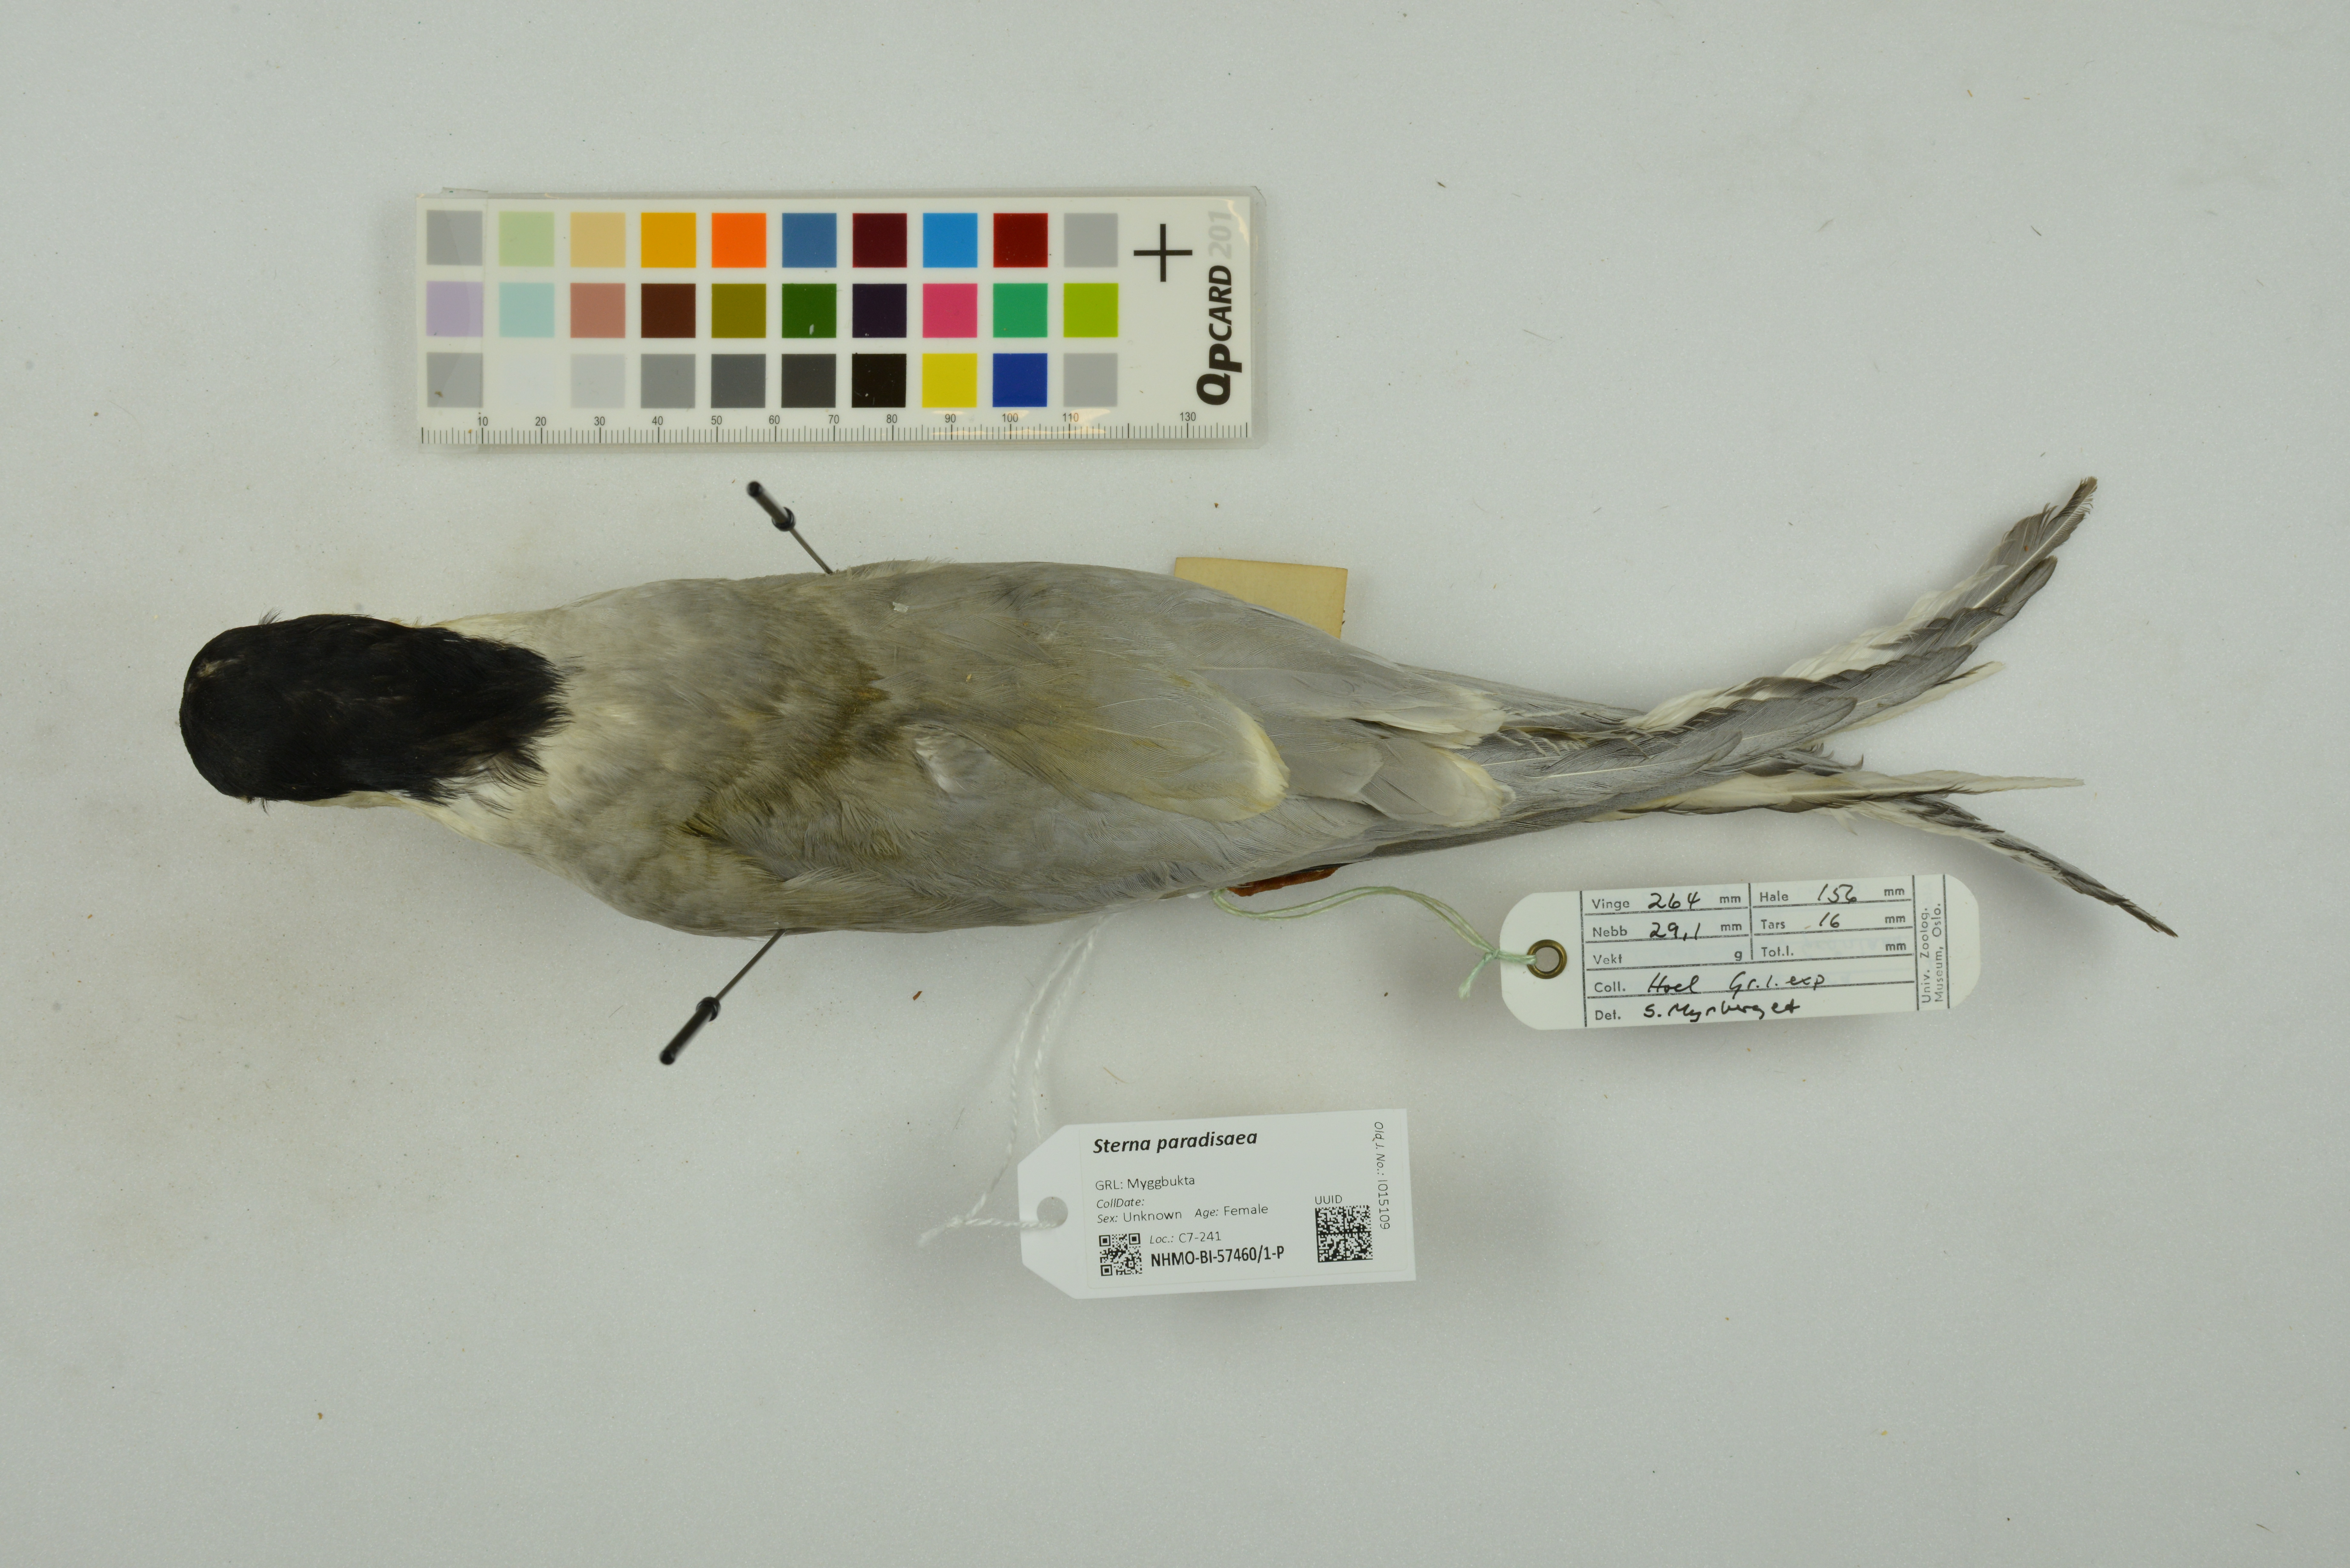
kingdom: Animalia
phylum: Chordata
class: Aves
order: Charadriiformes
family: Laridae
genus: Sterna
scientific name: Sterna paradisaea
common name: Arctic tern
